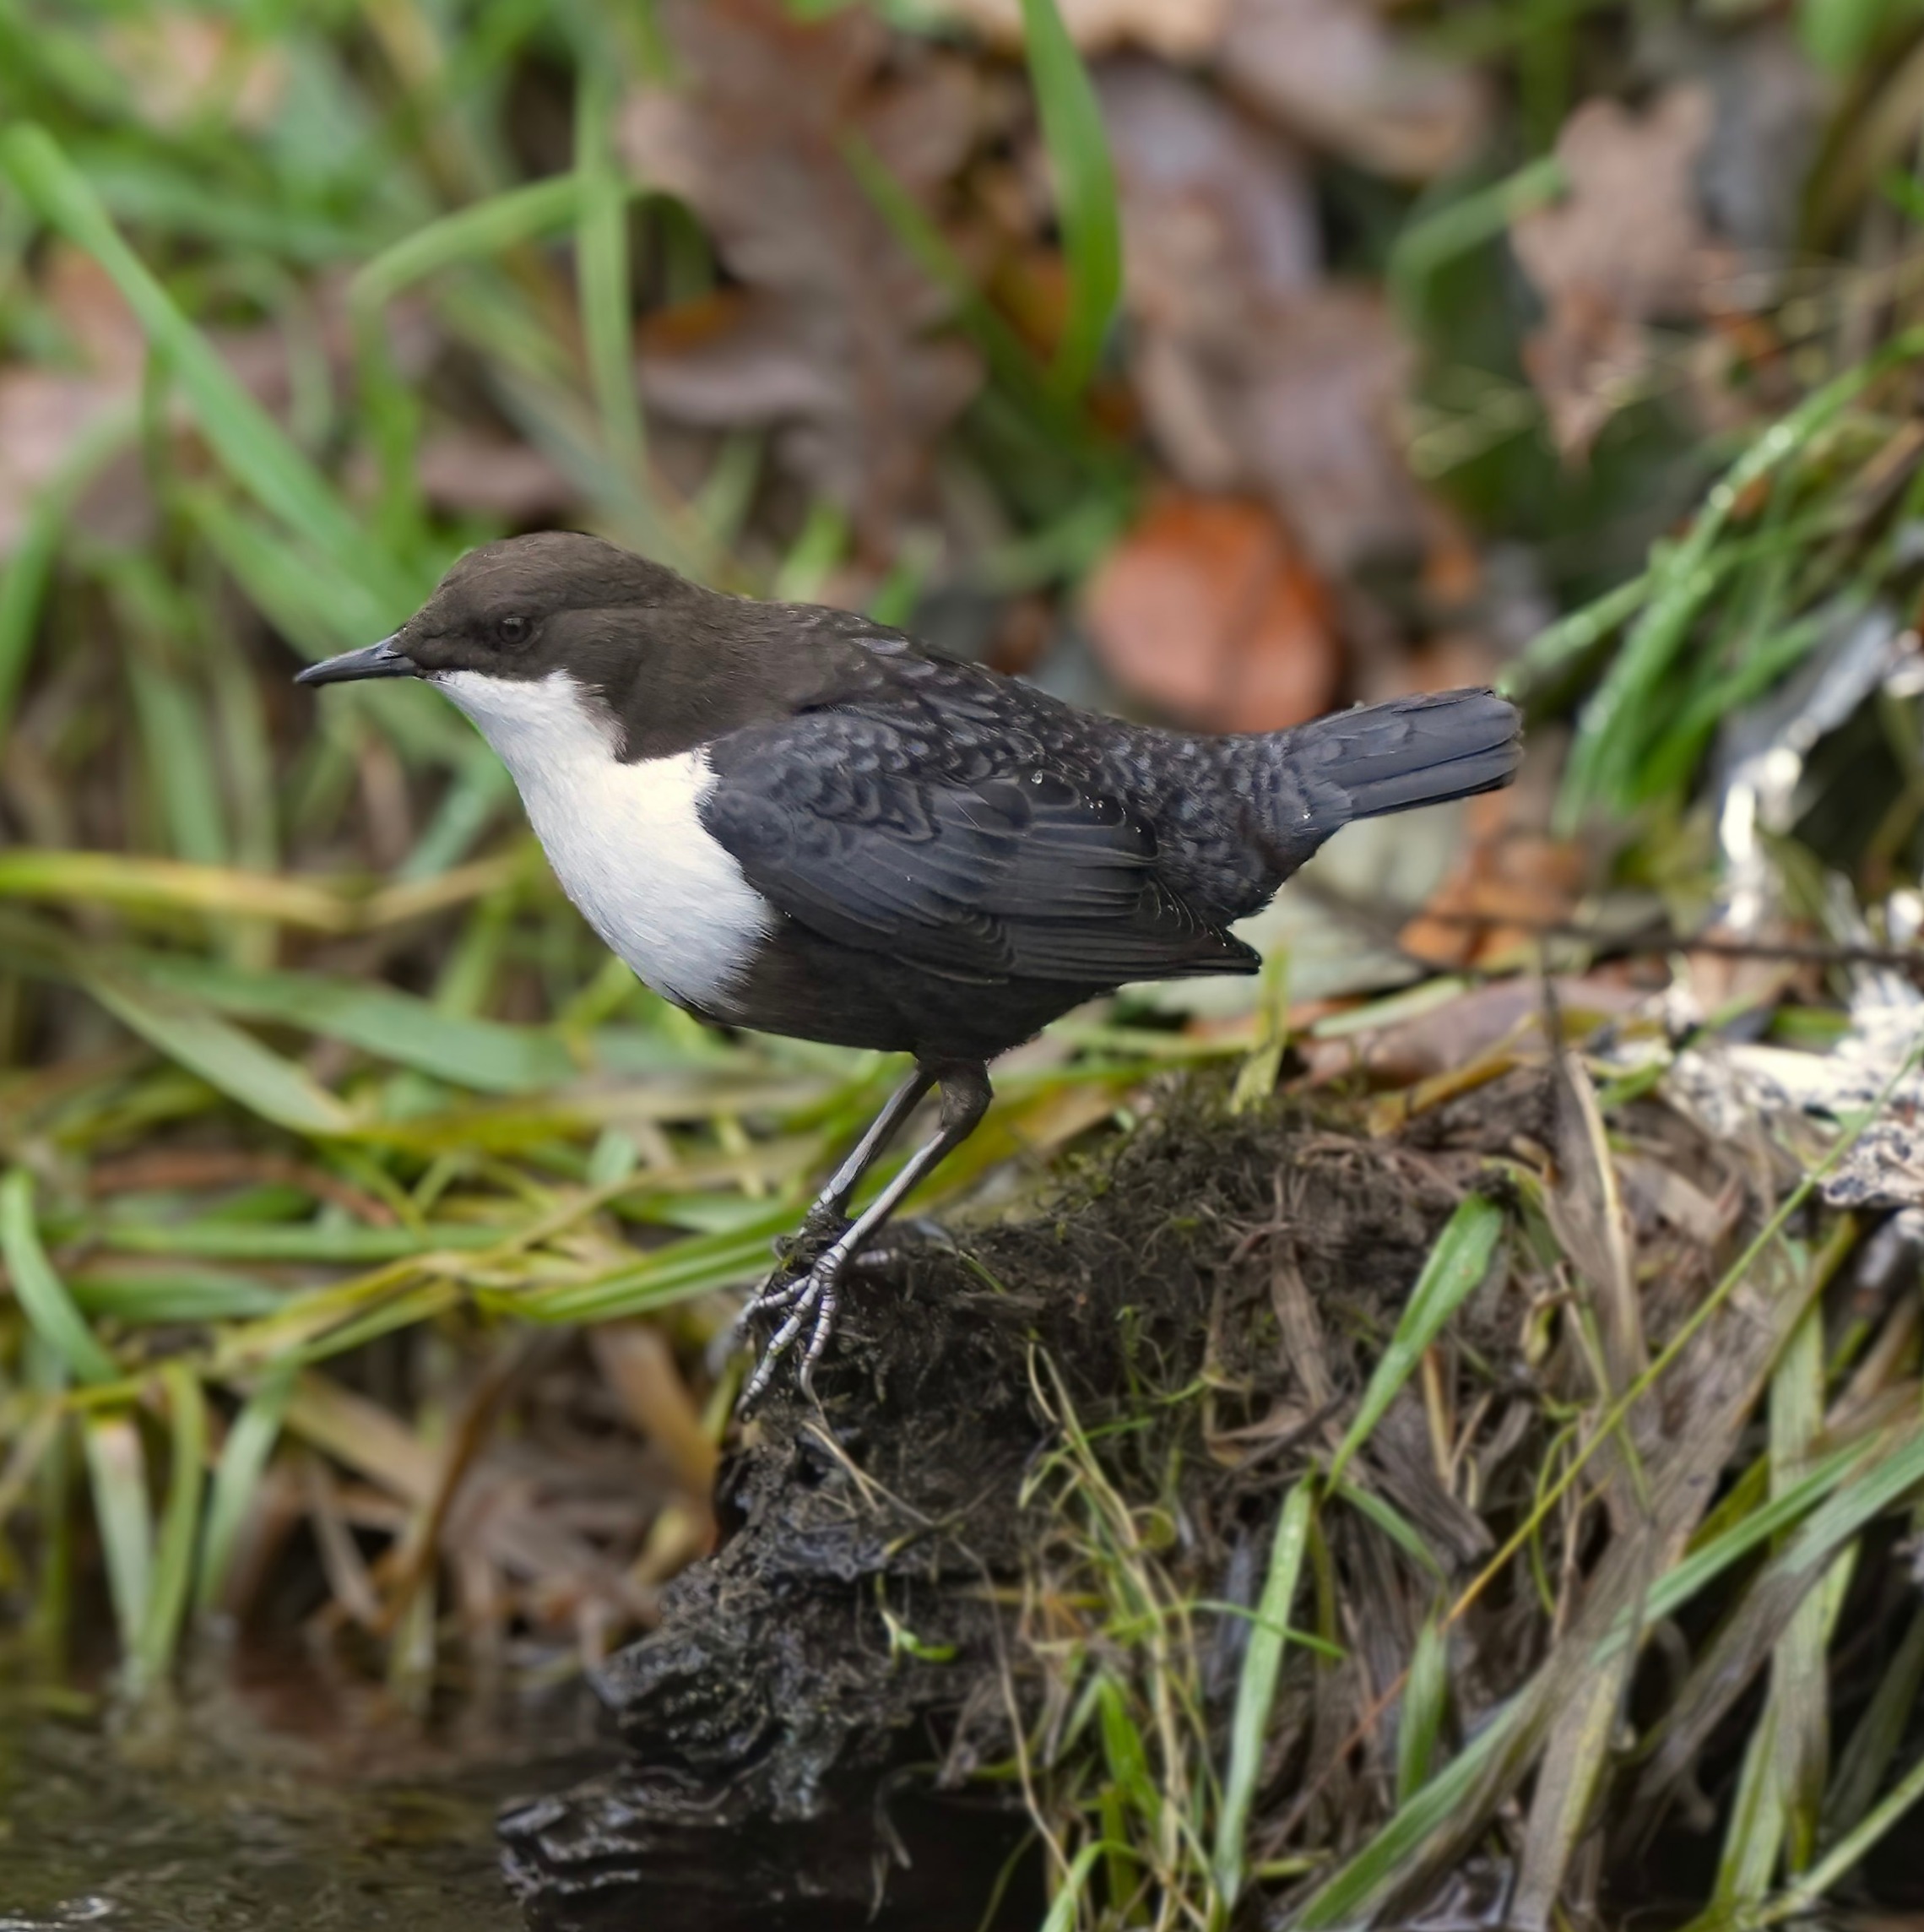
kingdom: Animalia
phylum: Chordata
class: Aves
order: Passeriformes
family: Cinclidae
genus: Cinclus
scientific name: Cinclus cinclus
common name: Vandstær
